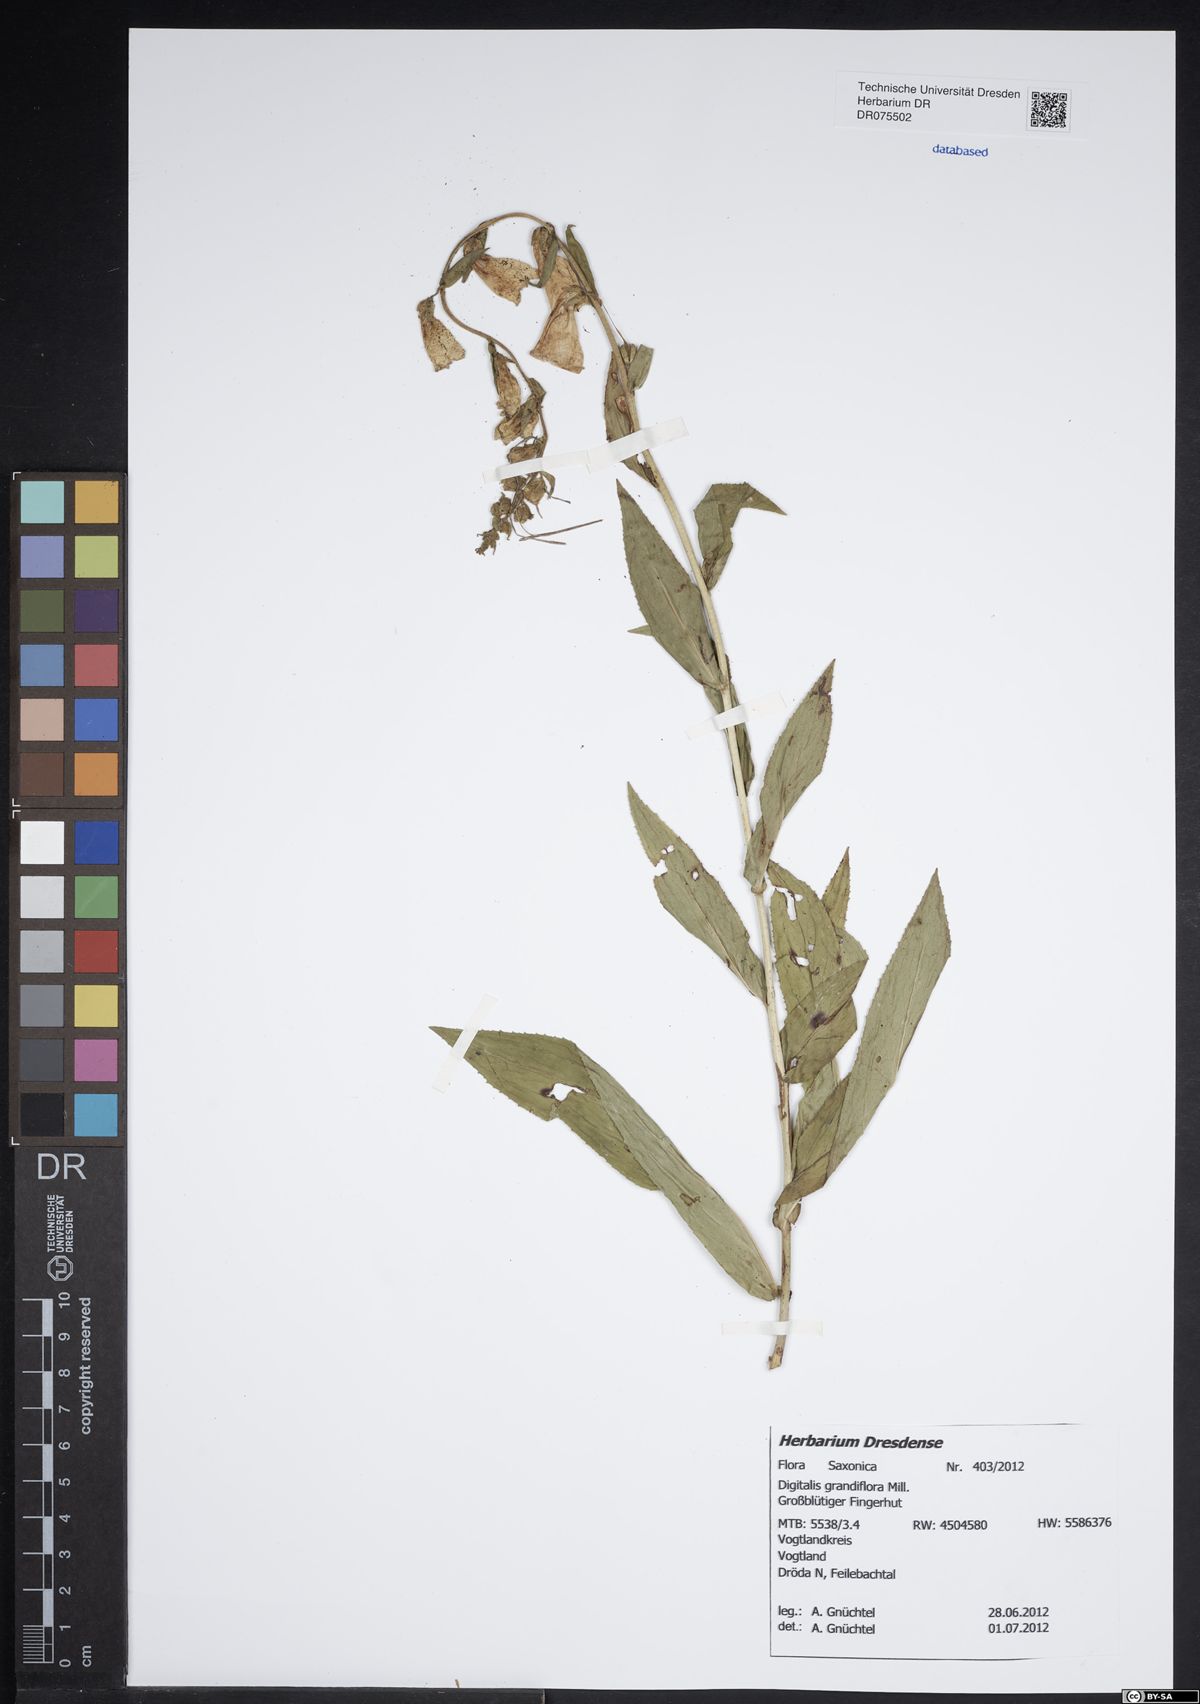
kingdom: Plantae
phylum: Tracheophyta
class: Magnoliopsida
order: Lamiales
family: Plantaginaceae
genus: Digitalis
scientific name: Digitalis grandiflora
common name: Yellow foxglove
